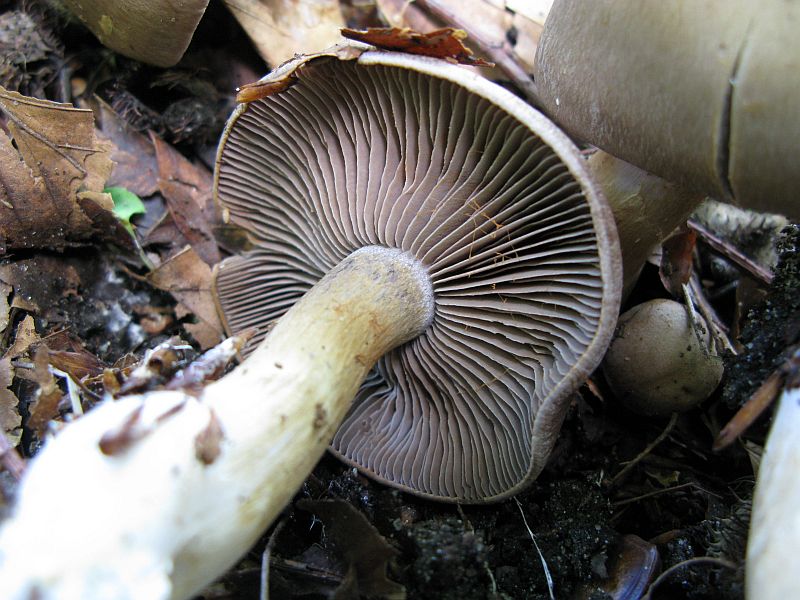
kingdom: Fungi
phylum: Basidiomycota
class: Agaricomycetes
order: Agaricales
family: Cortinariaceae
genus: Cortinarius
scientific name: Cortinarius
